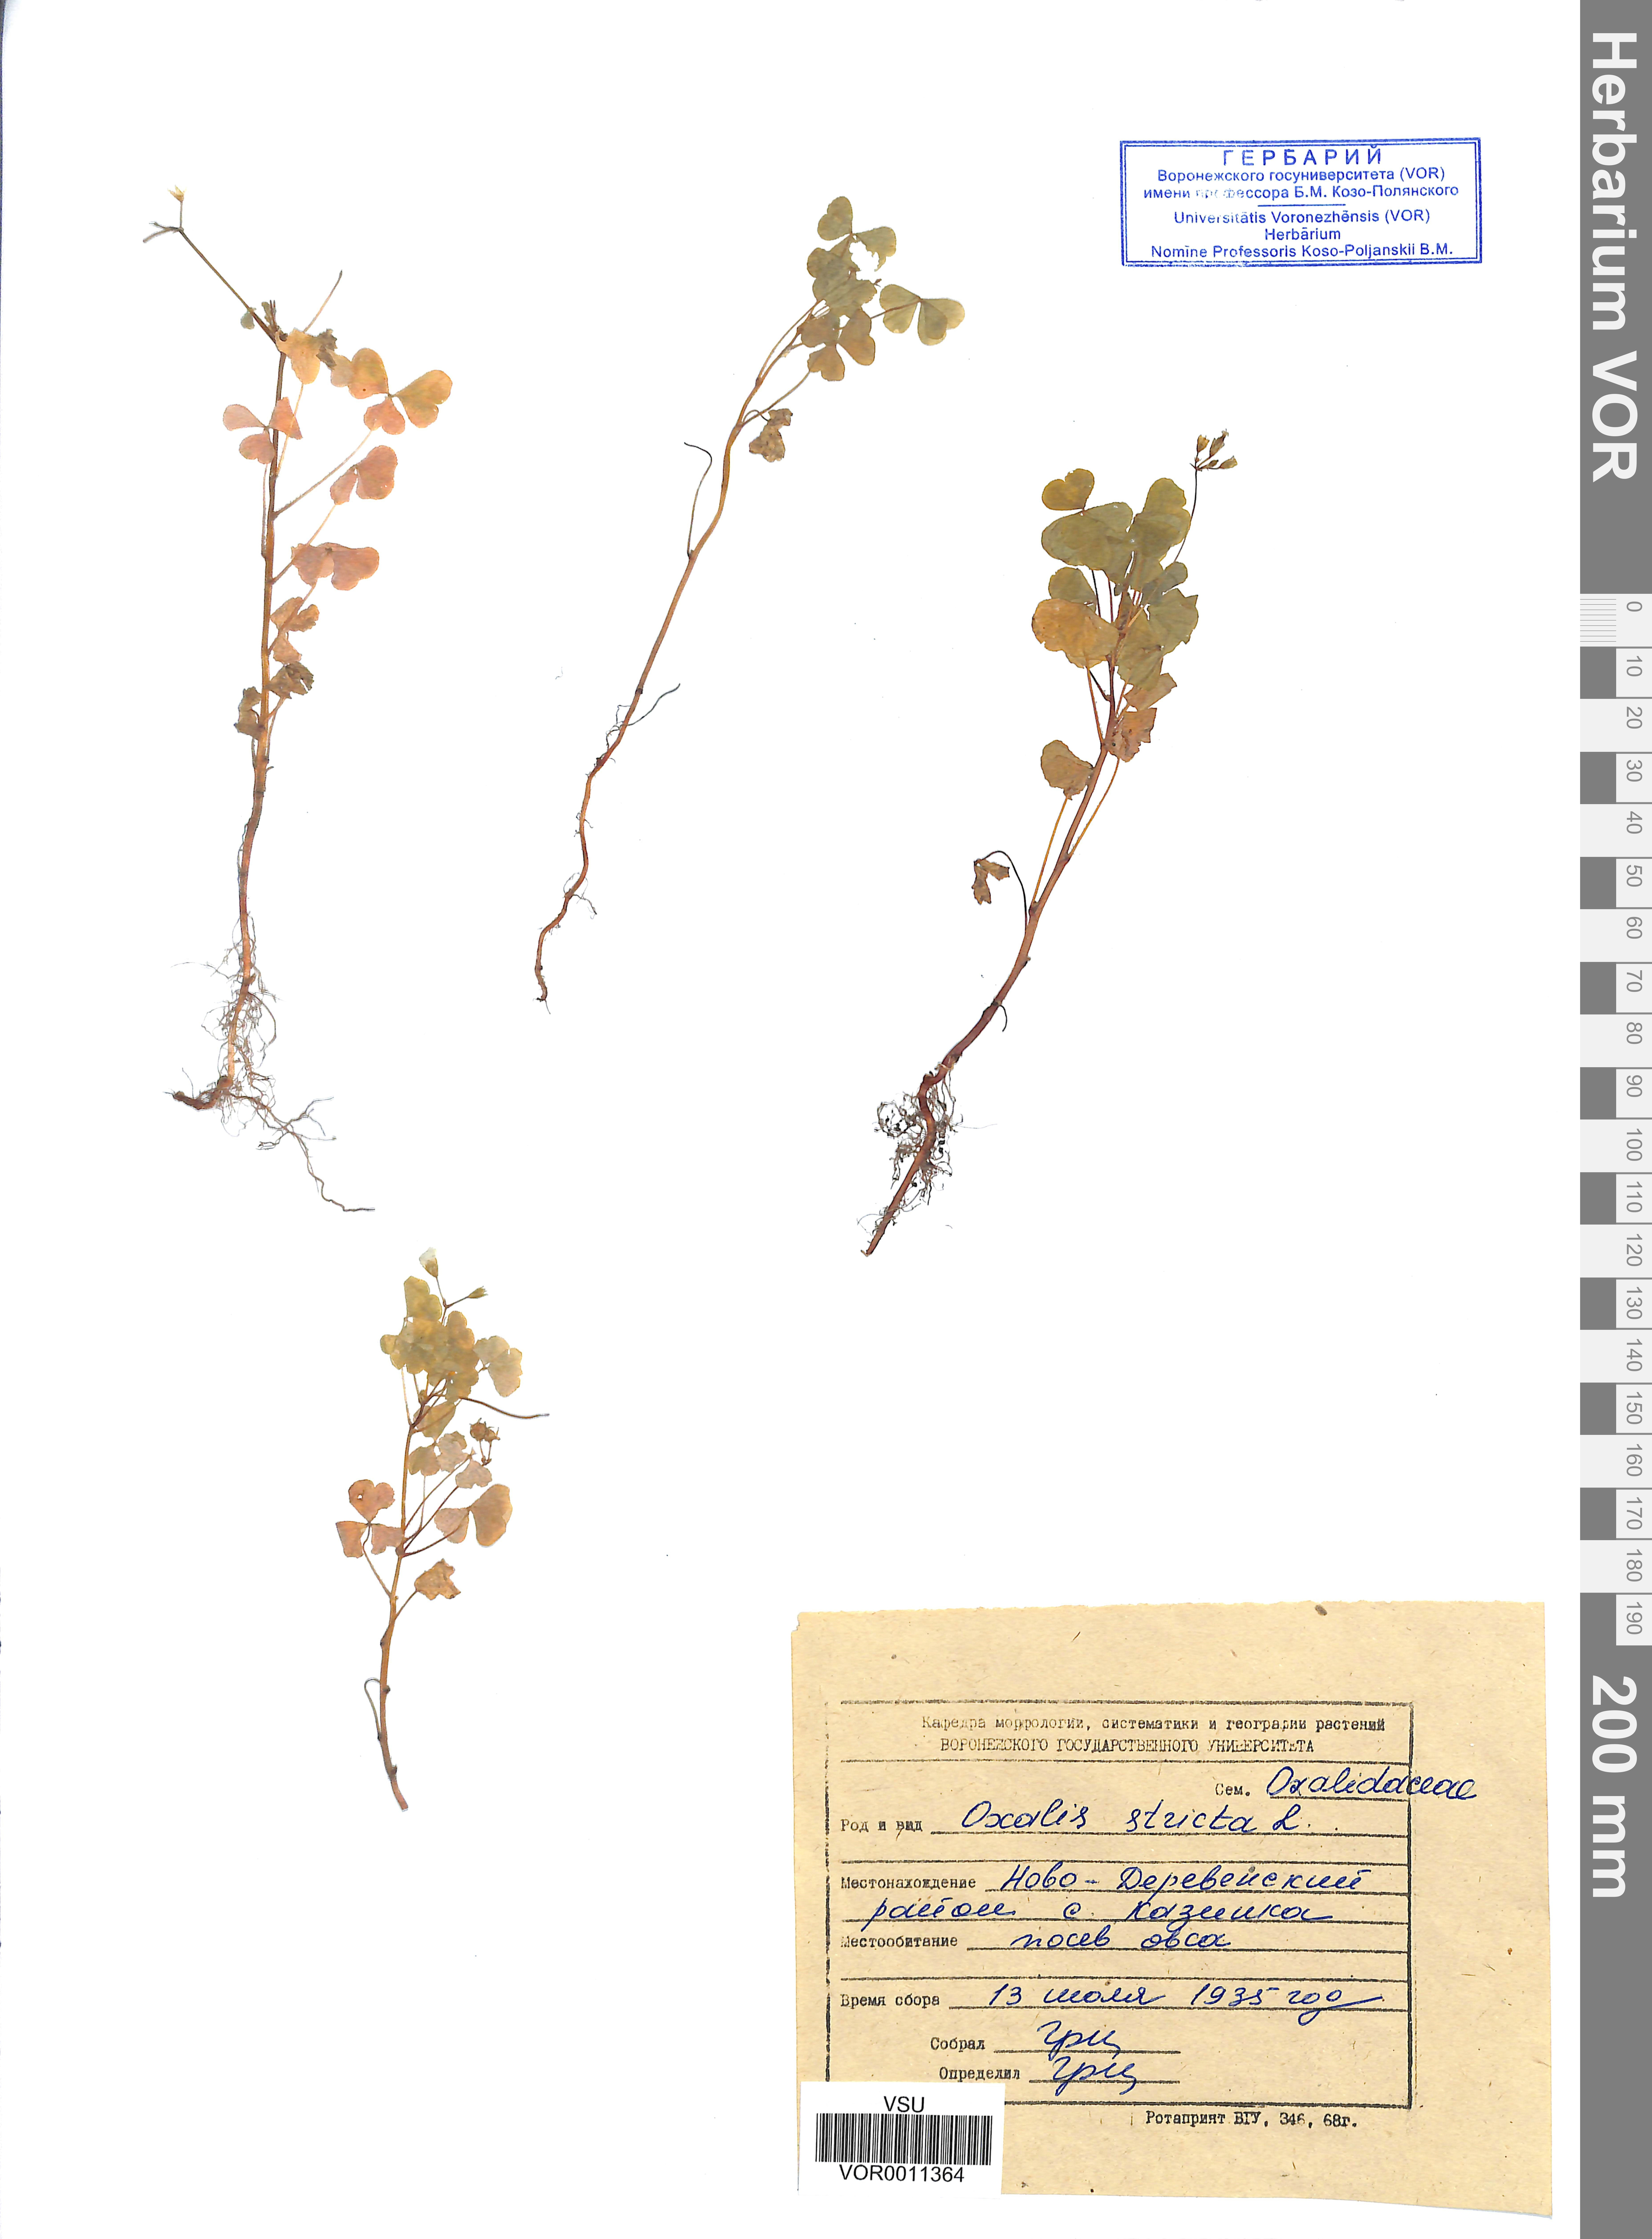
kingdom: Plantae
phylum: Tracheophyta
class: Magnoliopsida
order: Oxalidales
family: Oxalidaceae
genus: Oxalis
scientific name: Oxalis stricta
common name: Upright yellow-sorrel
